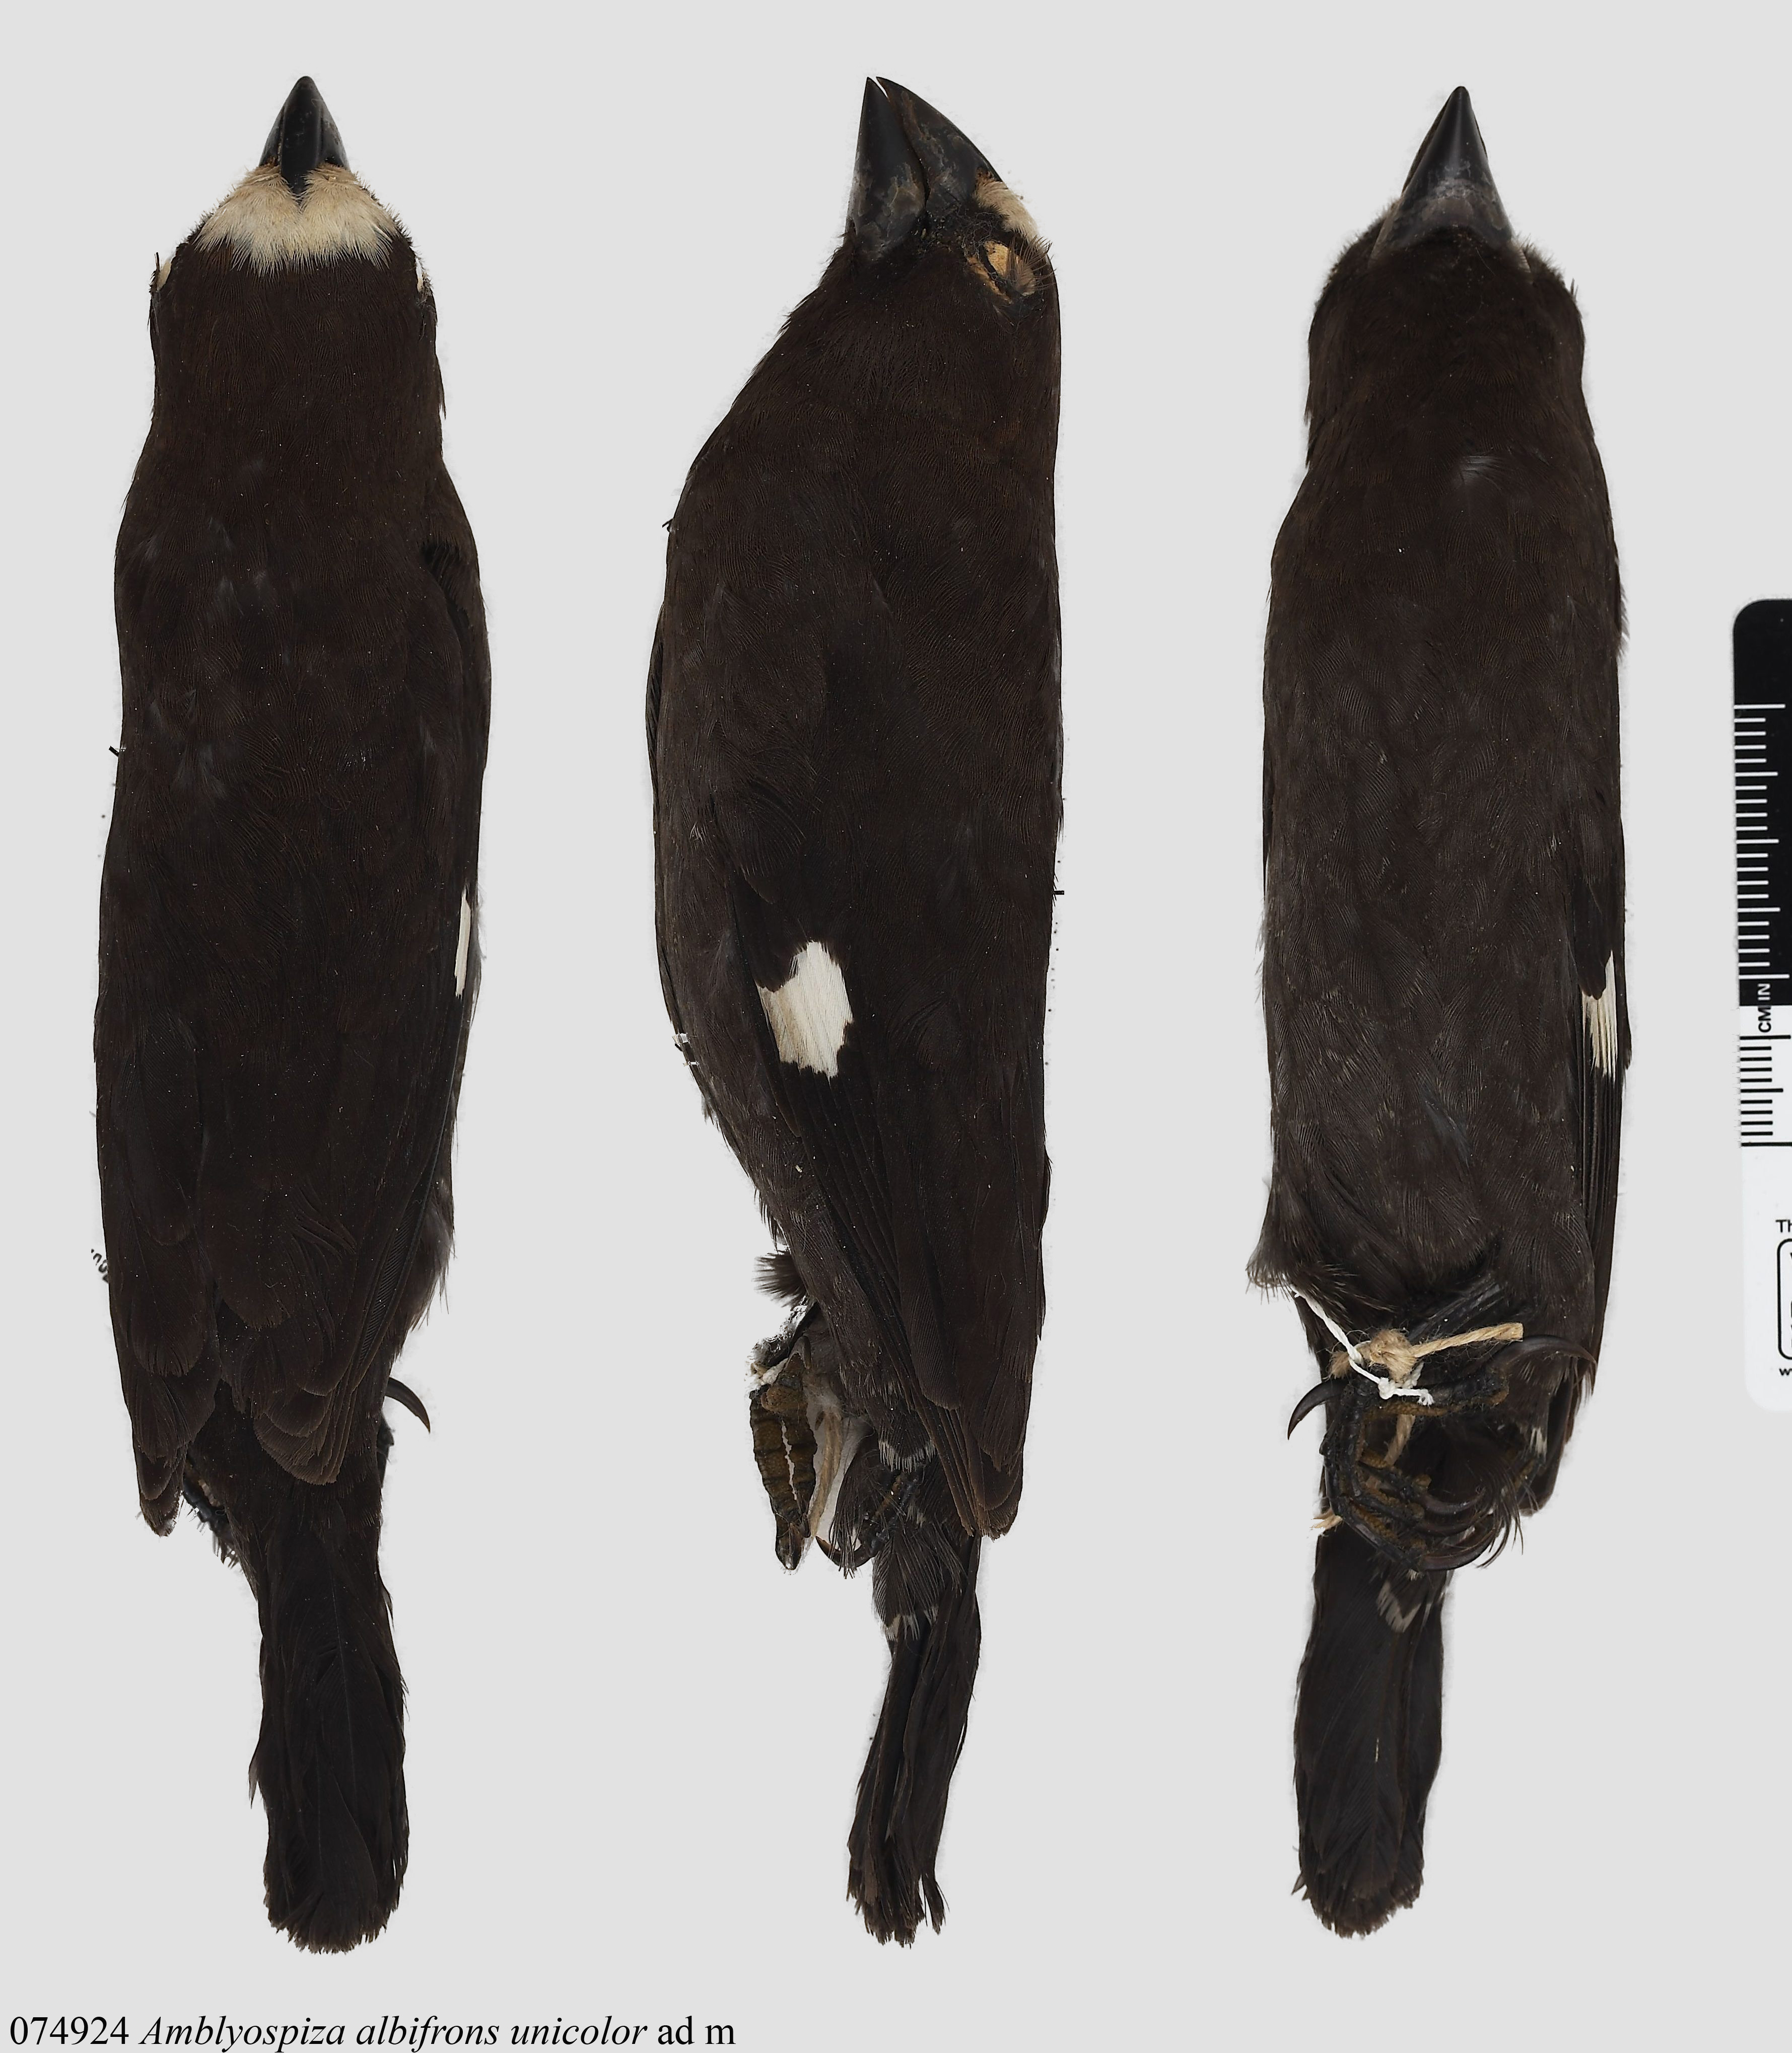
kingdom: Animalia
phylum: Chordata
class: Aves
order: Passeriformes
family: Ploceidae
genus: Amblyospiza
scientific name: Amblyospiza albifrons
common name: Thick-billed weaver
